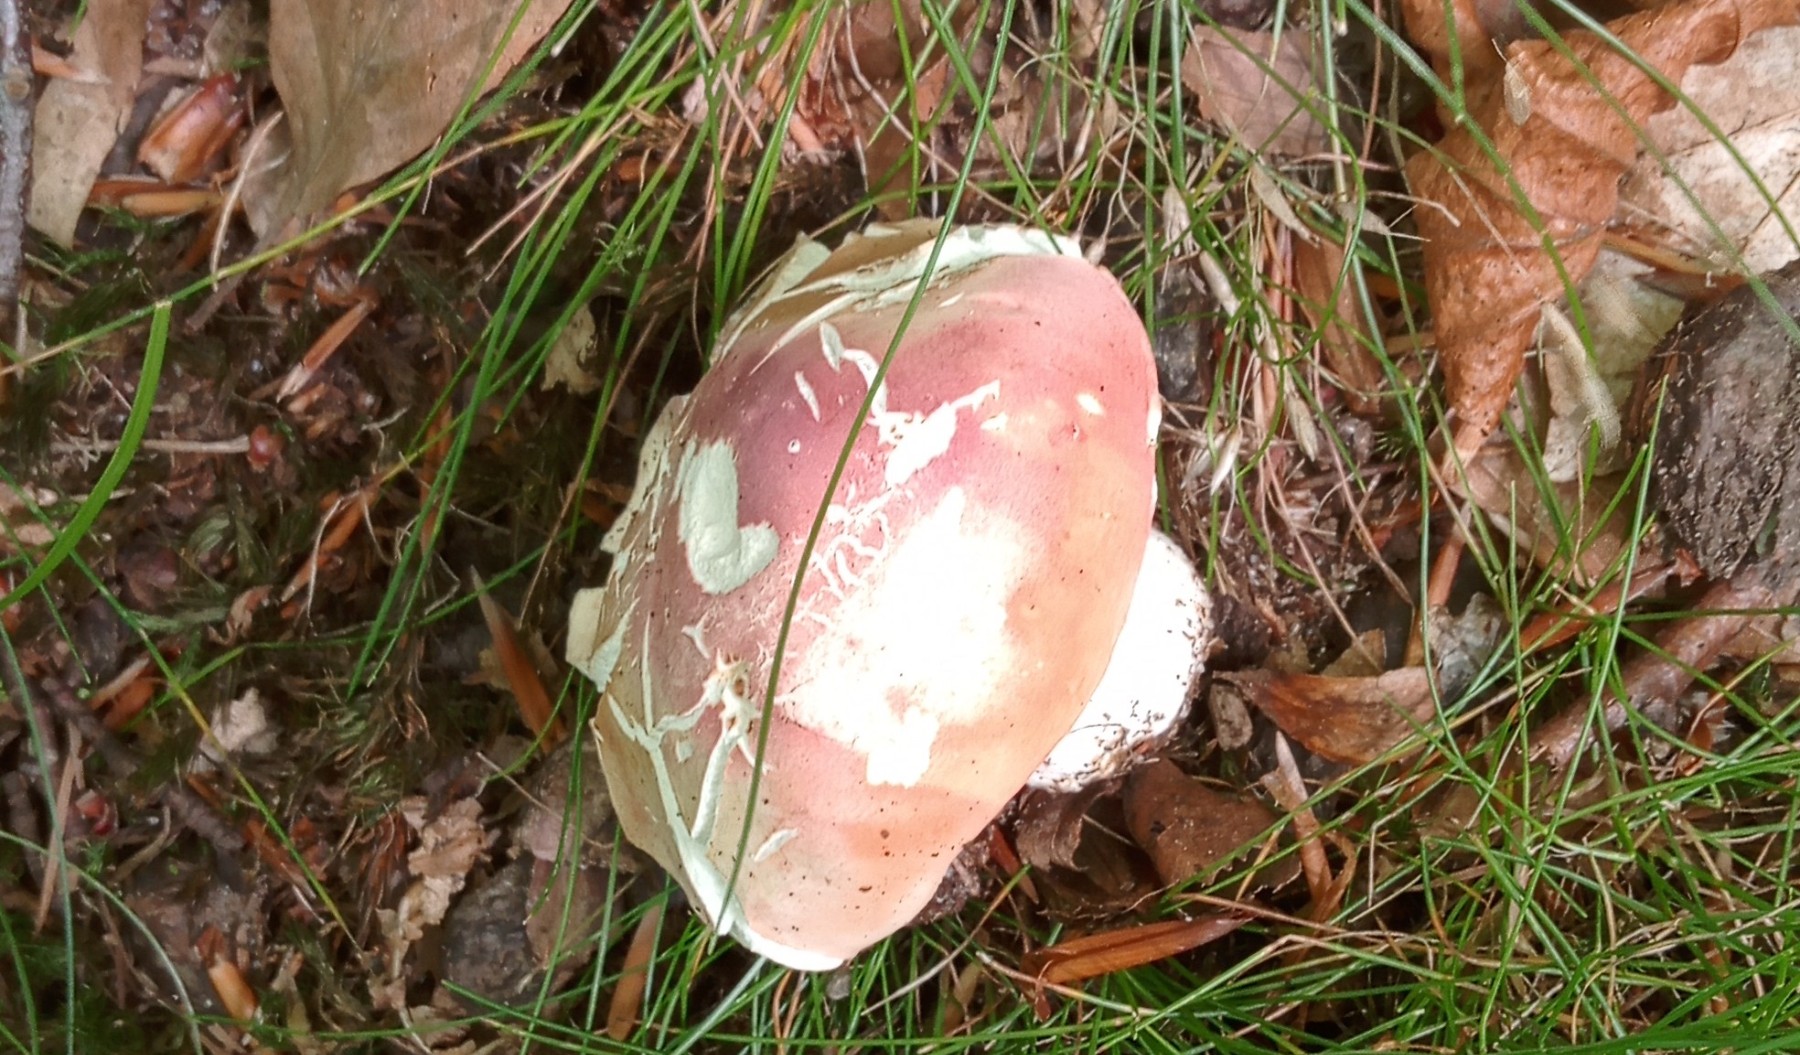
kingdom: Fungi
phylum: Basidiomycota
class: Agaricomycetes
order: Russulales
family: Russulaceae
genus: Russula
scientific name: Russula rosea
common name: fastkødet skørhat
